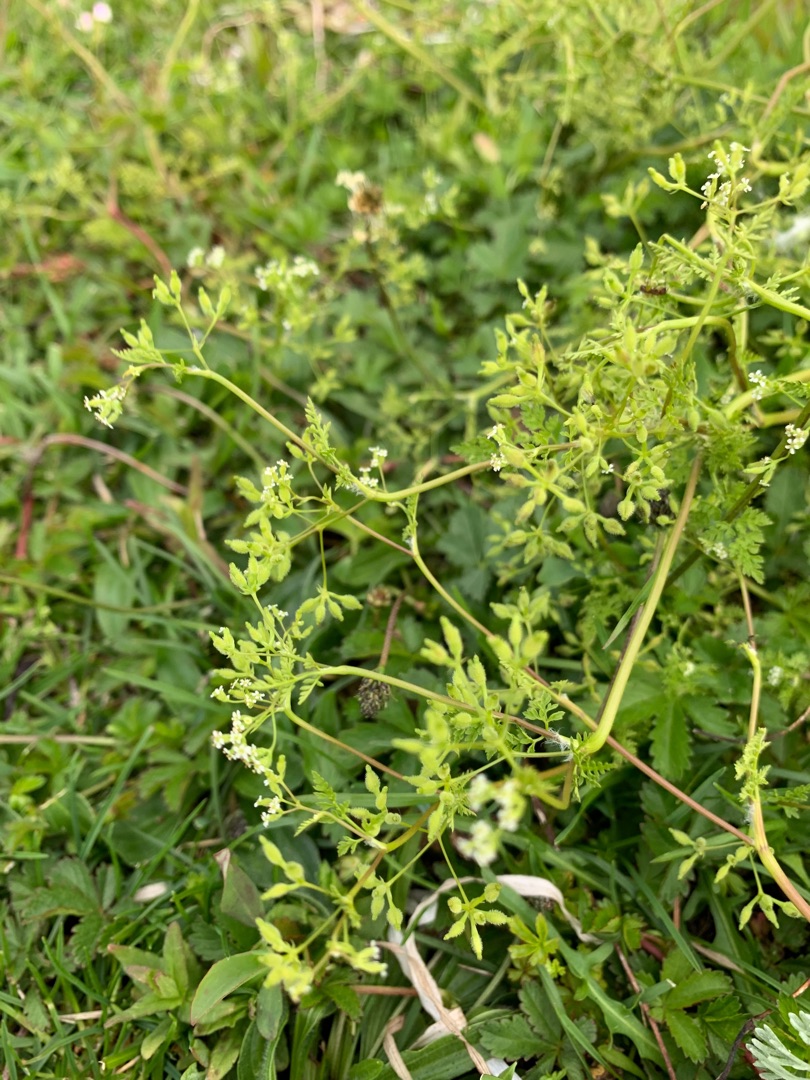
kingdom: Plantae
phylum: Tracheophyta
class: Magnoliopsida
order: Apiales
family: Apiaceae
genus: Anthriscus
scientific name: Anthriscus caucalis
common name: Gærde-kørvel
